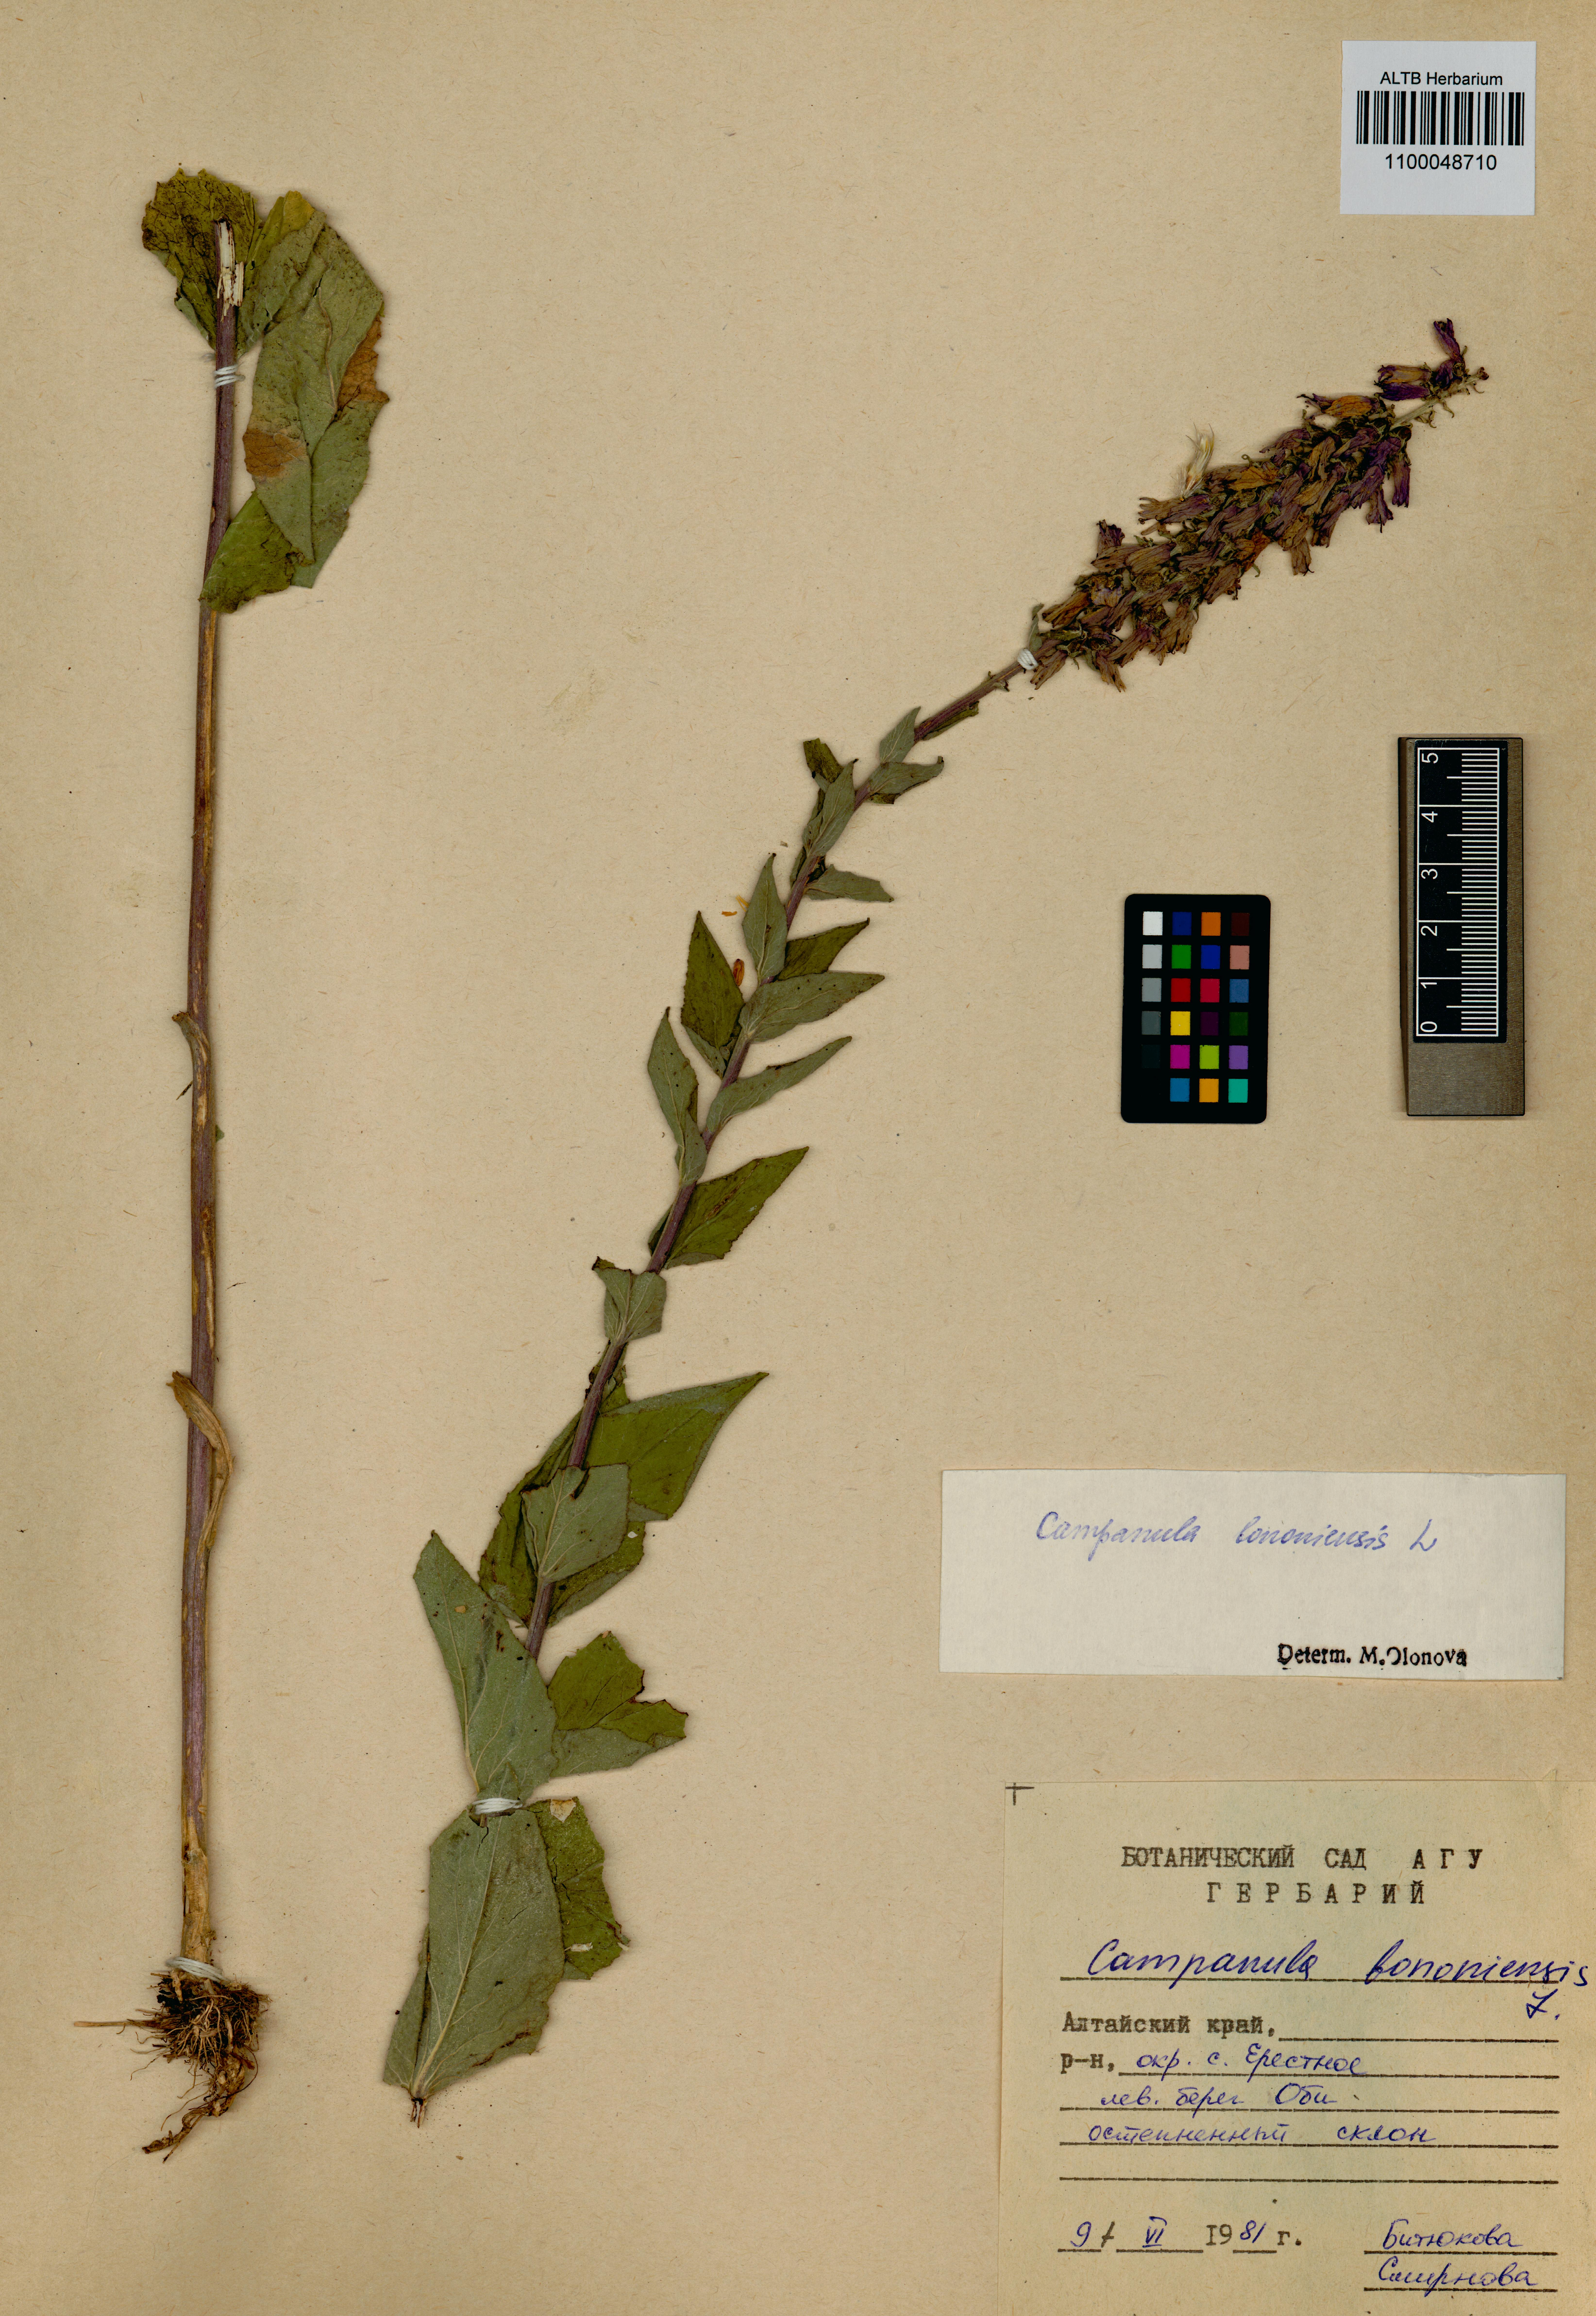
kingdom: Plantae
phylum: Tracheophyta
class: Magnoliopsida
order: Asterales
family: Campanulaceae
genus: Campanula
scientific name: Campanula bononiensis
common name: Pale bellflower
